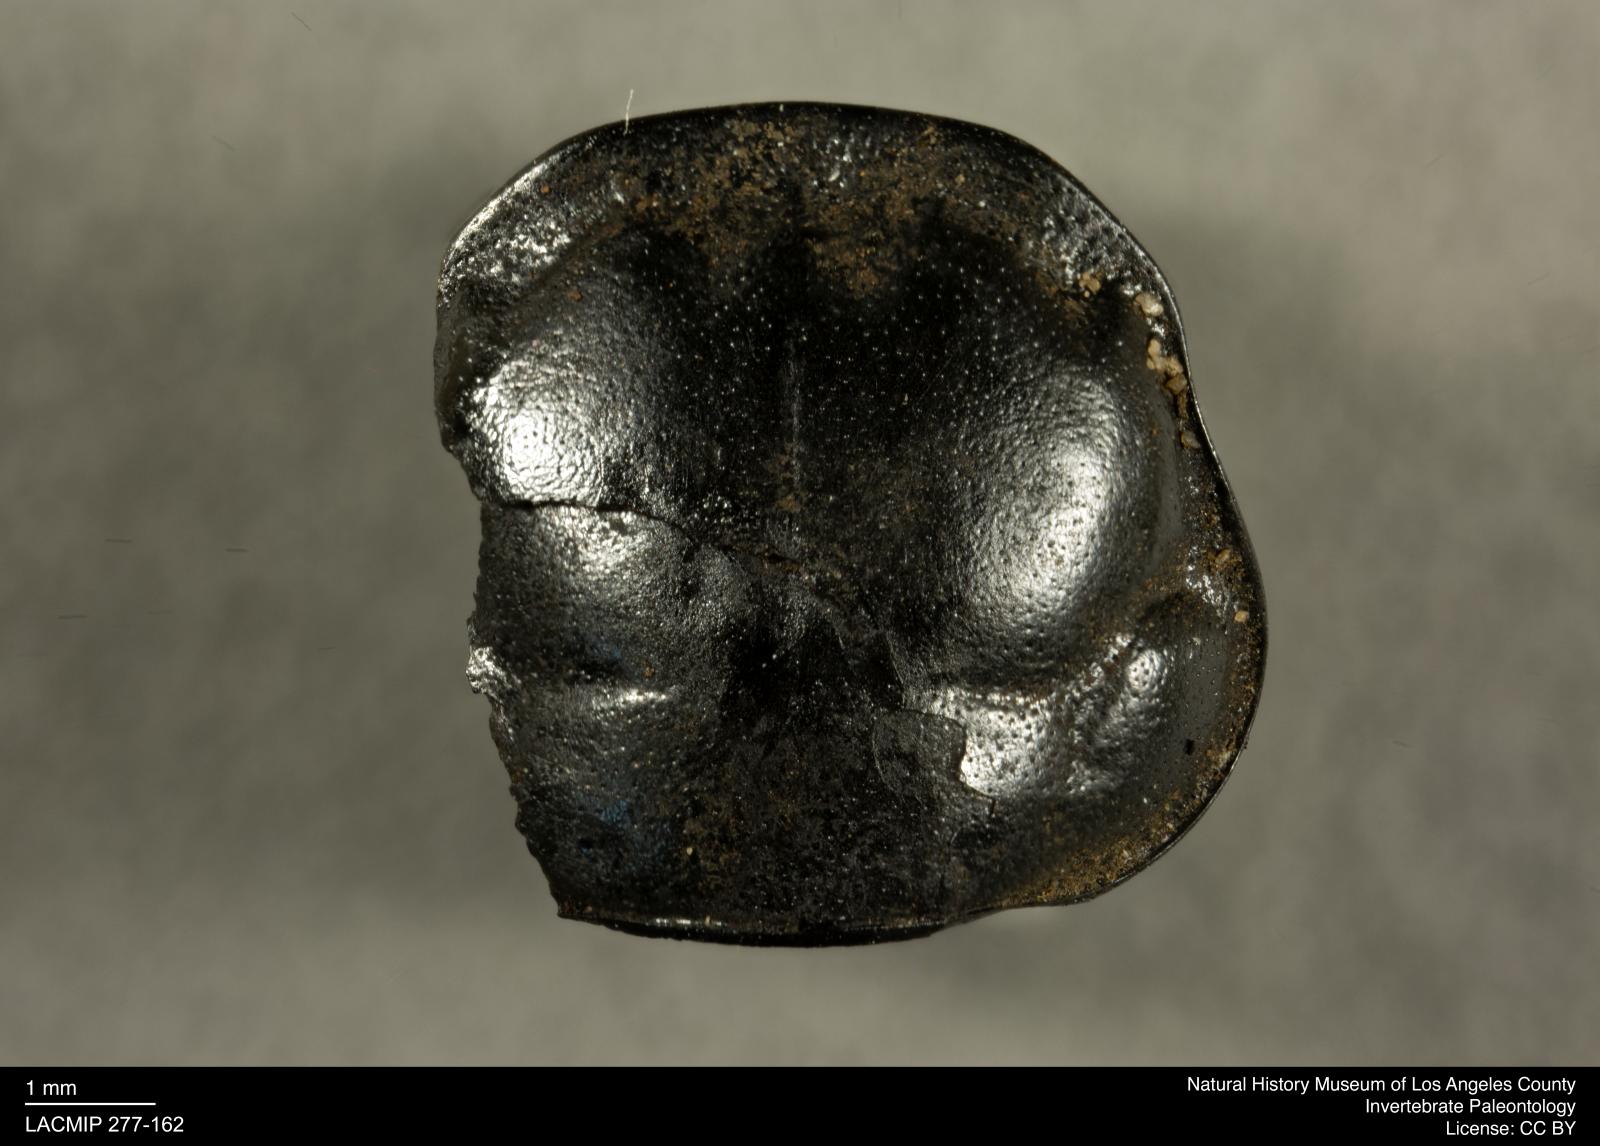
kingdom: Animalia
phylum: Arthropoda
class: Insecta
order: Coleoptera
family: Staphylinidae
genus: Nicrophorus
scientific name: Nicrophorus marginatus
